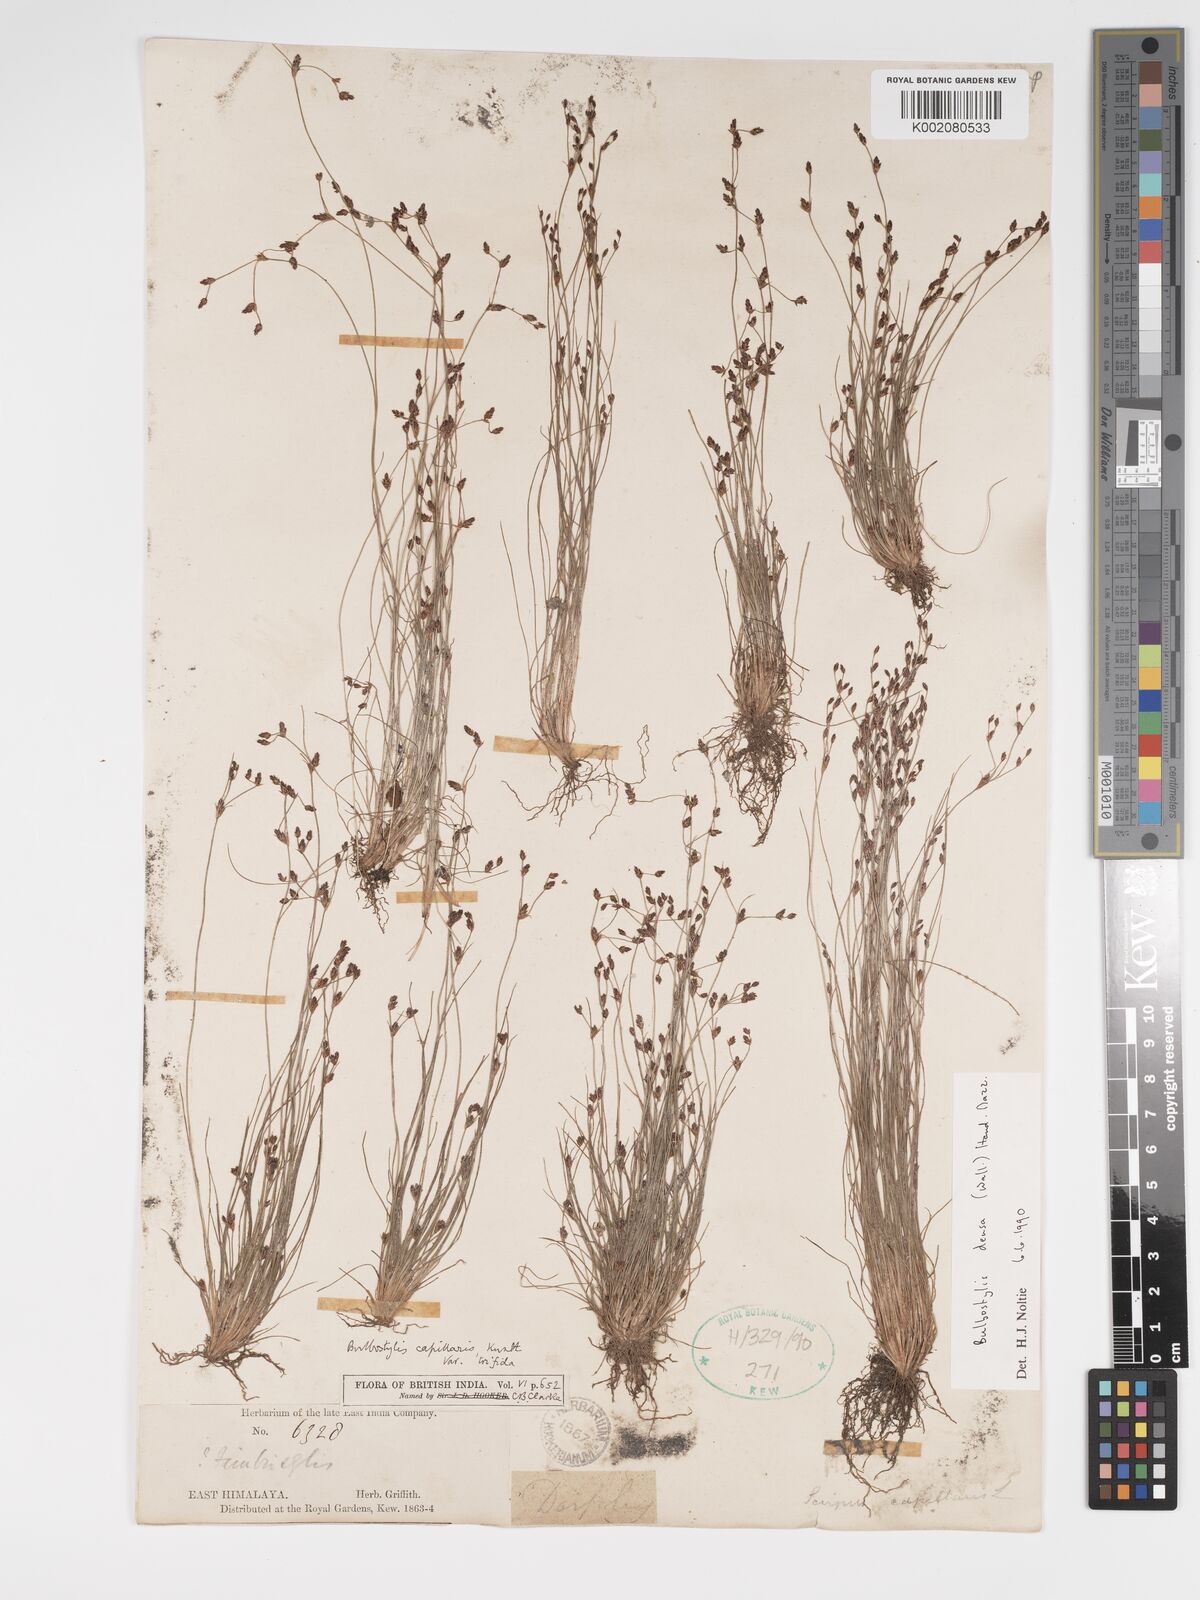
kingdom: Plantae
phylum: Tracheophyta
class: Liliopsida
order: Poales
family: Cyperaceae
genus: Bulbostylis
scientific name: Bulbostylis densa
